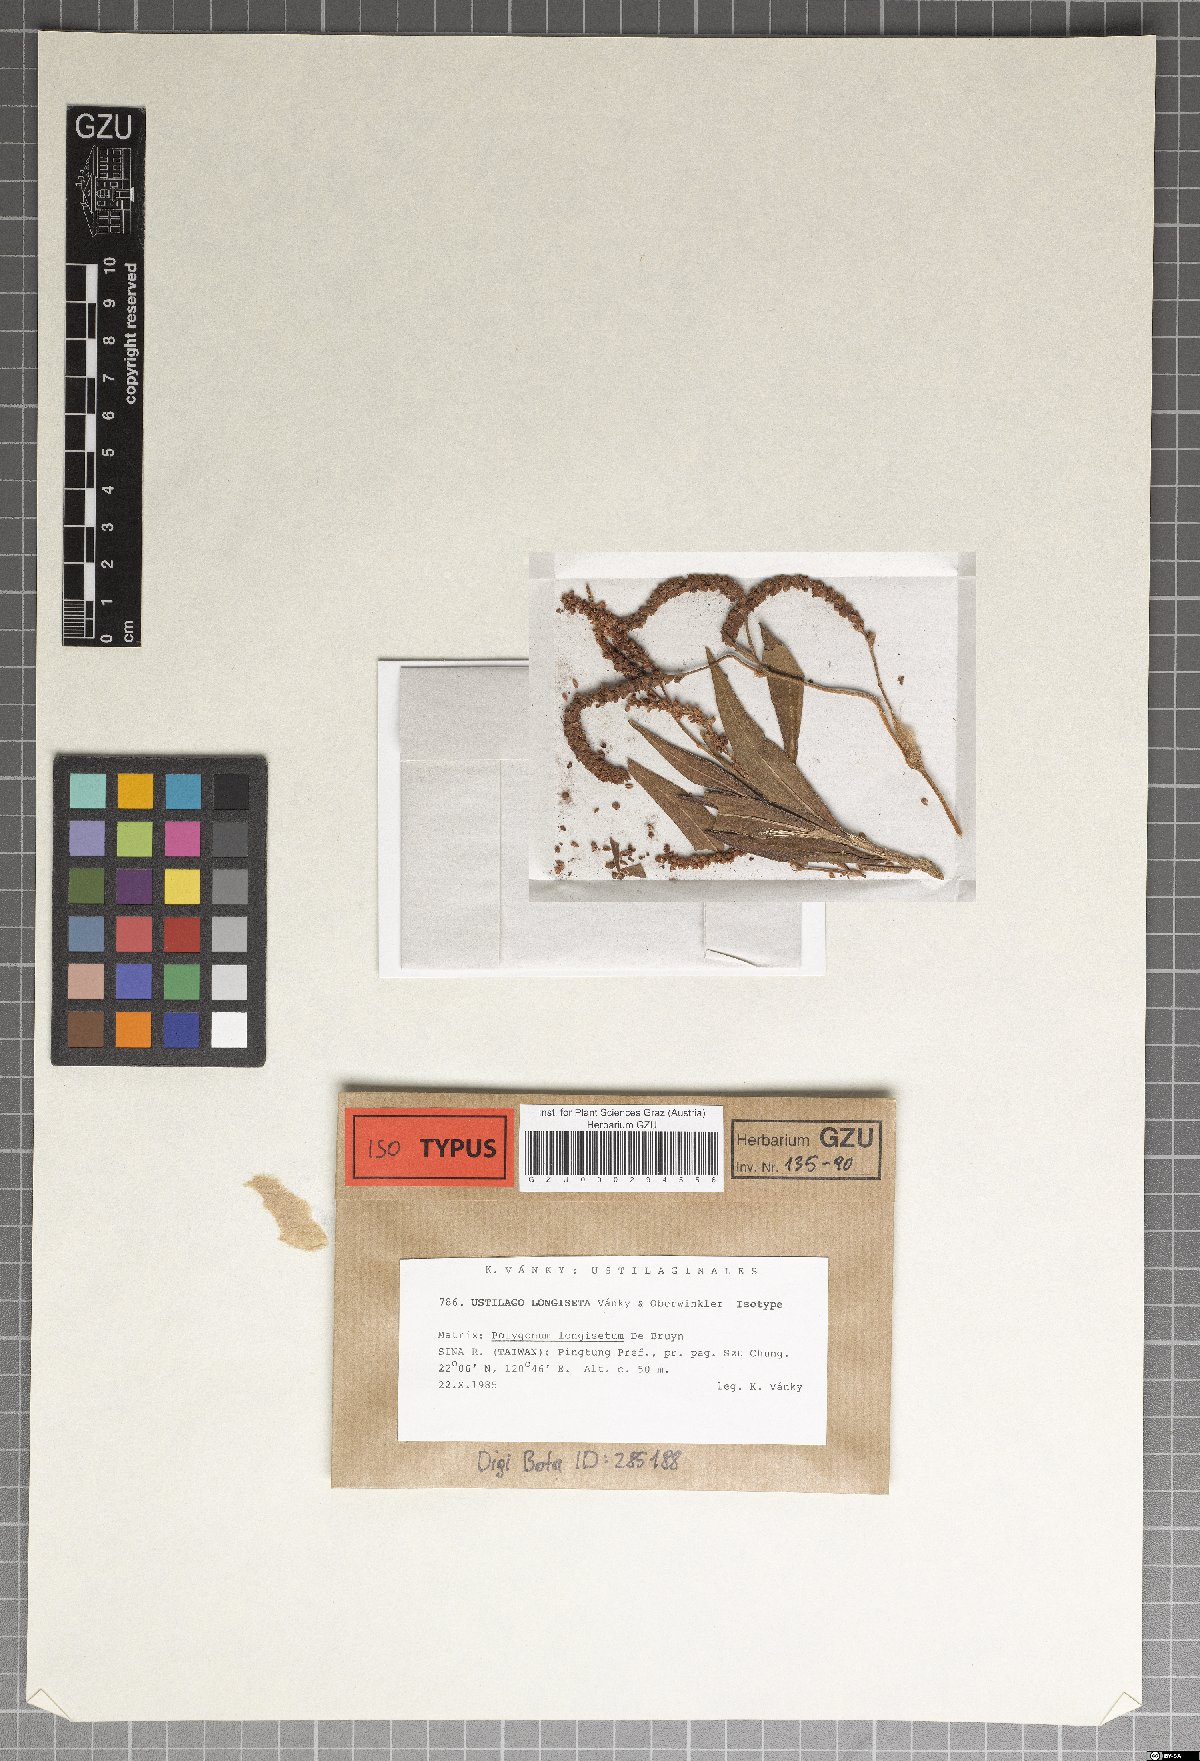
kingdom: Fungi
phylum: Basidiomycota
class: Microbotryomycetes
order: Microbotryales
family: Microbotryaceae
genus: Microbotryum
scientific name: Microbotryum longisetum
